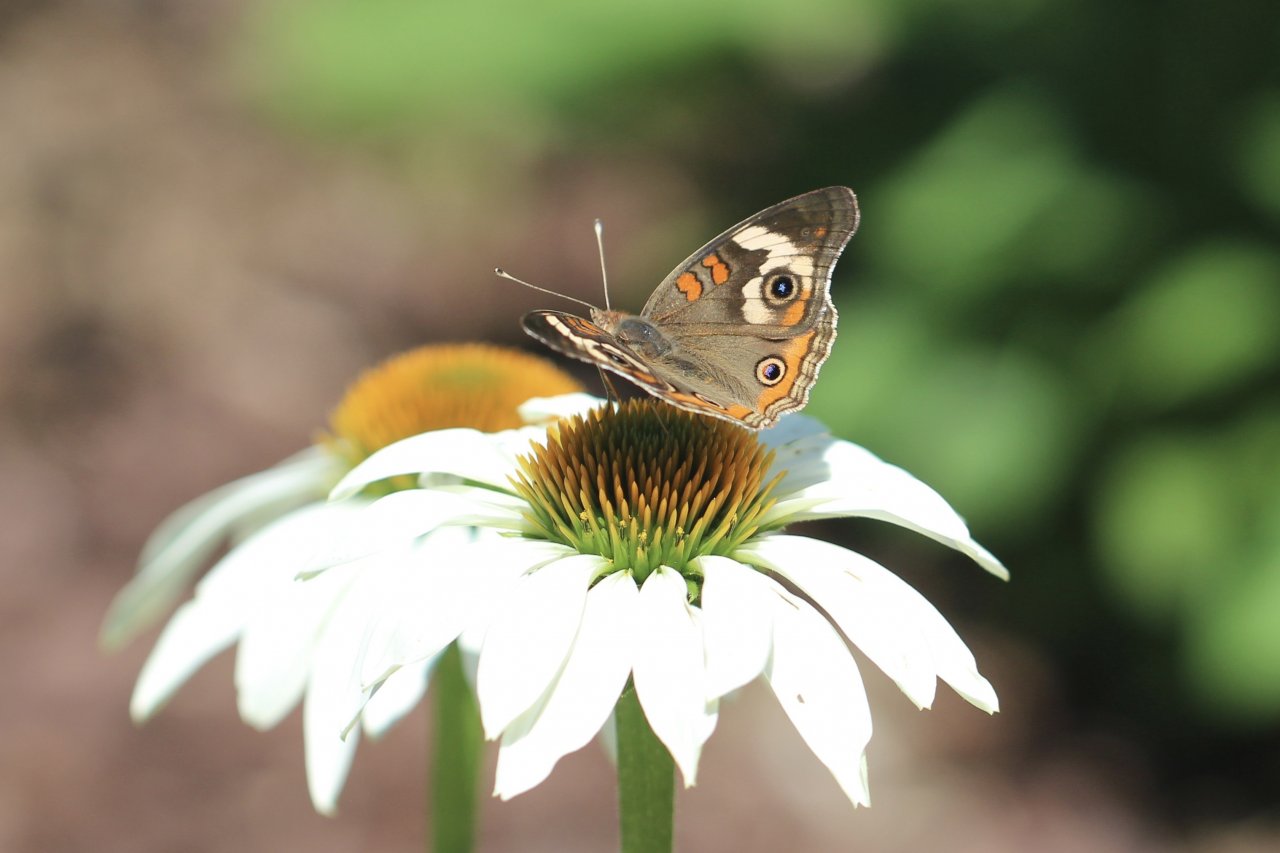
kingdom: Animalia
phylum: Arthropoda
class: Insecta
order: Lepidoptera
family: Nymphalidae
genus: Junonia
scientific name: Junonia coenia
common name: Common Buckeye
